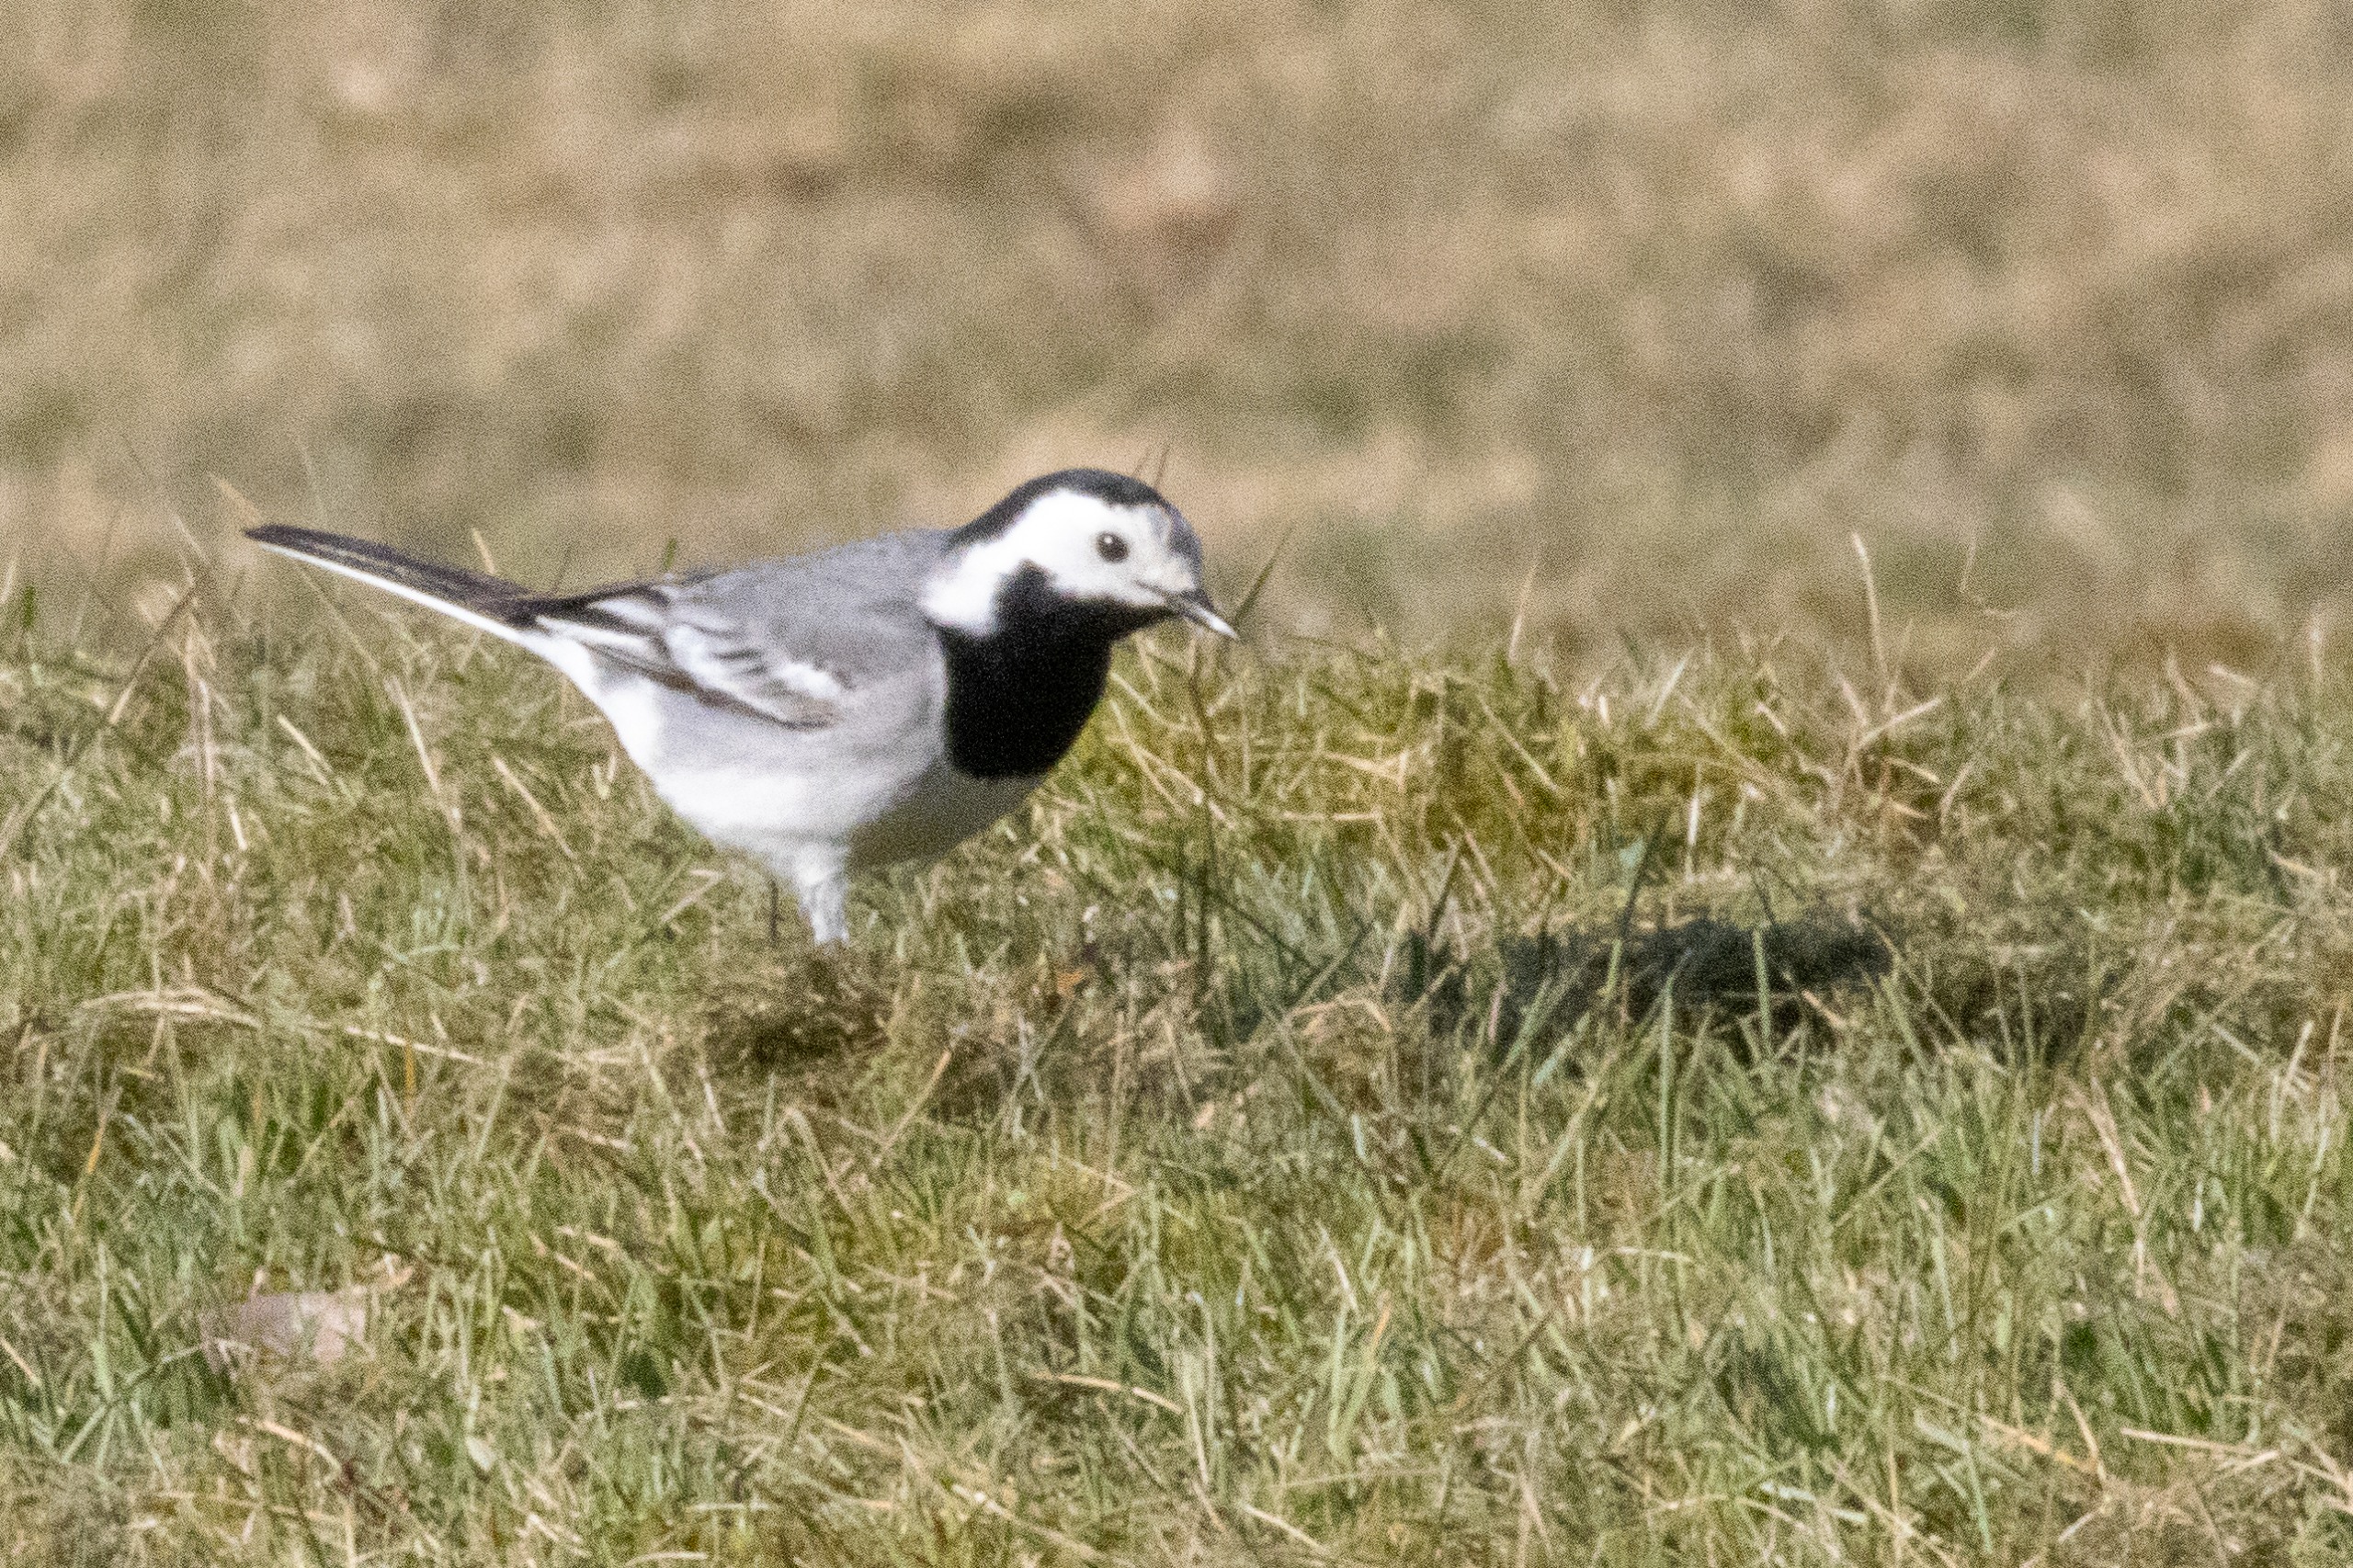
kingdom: Animalia
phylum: Chordata
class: Aves
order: Passeriformes
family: Motacillidae
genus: Motacilla
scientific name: Motacilla alba
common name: Hvid vipstjert
